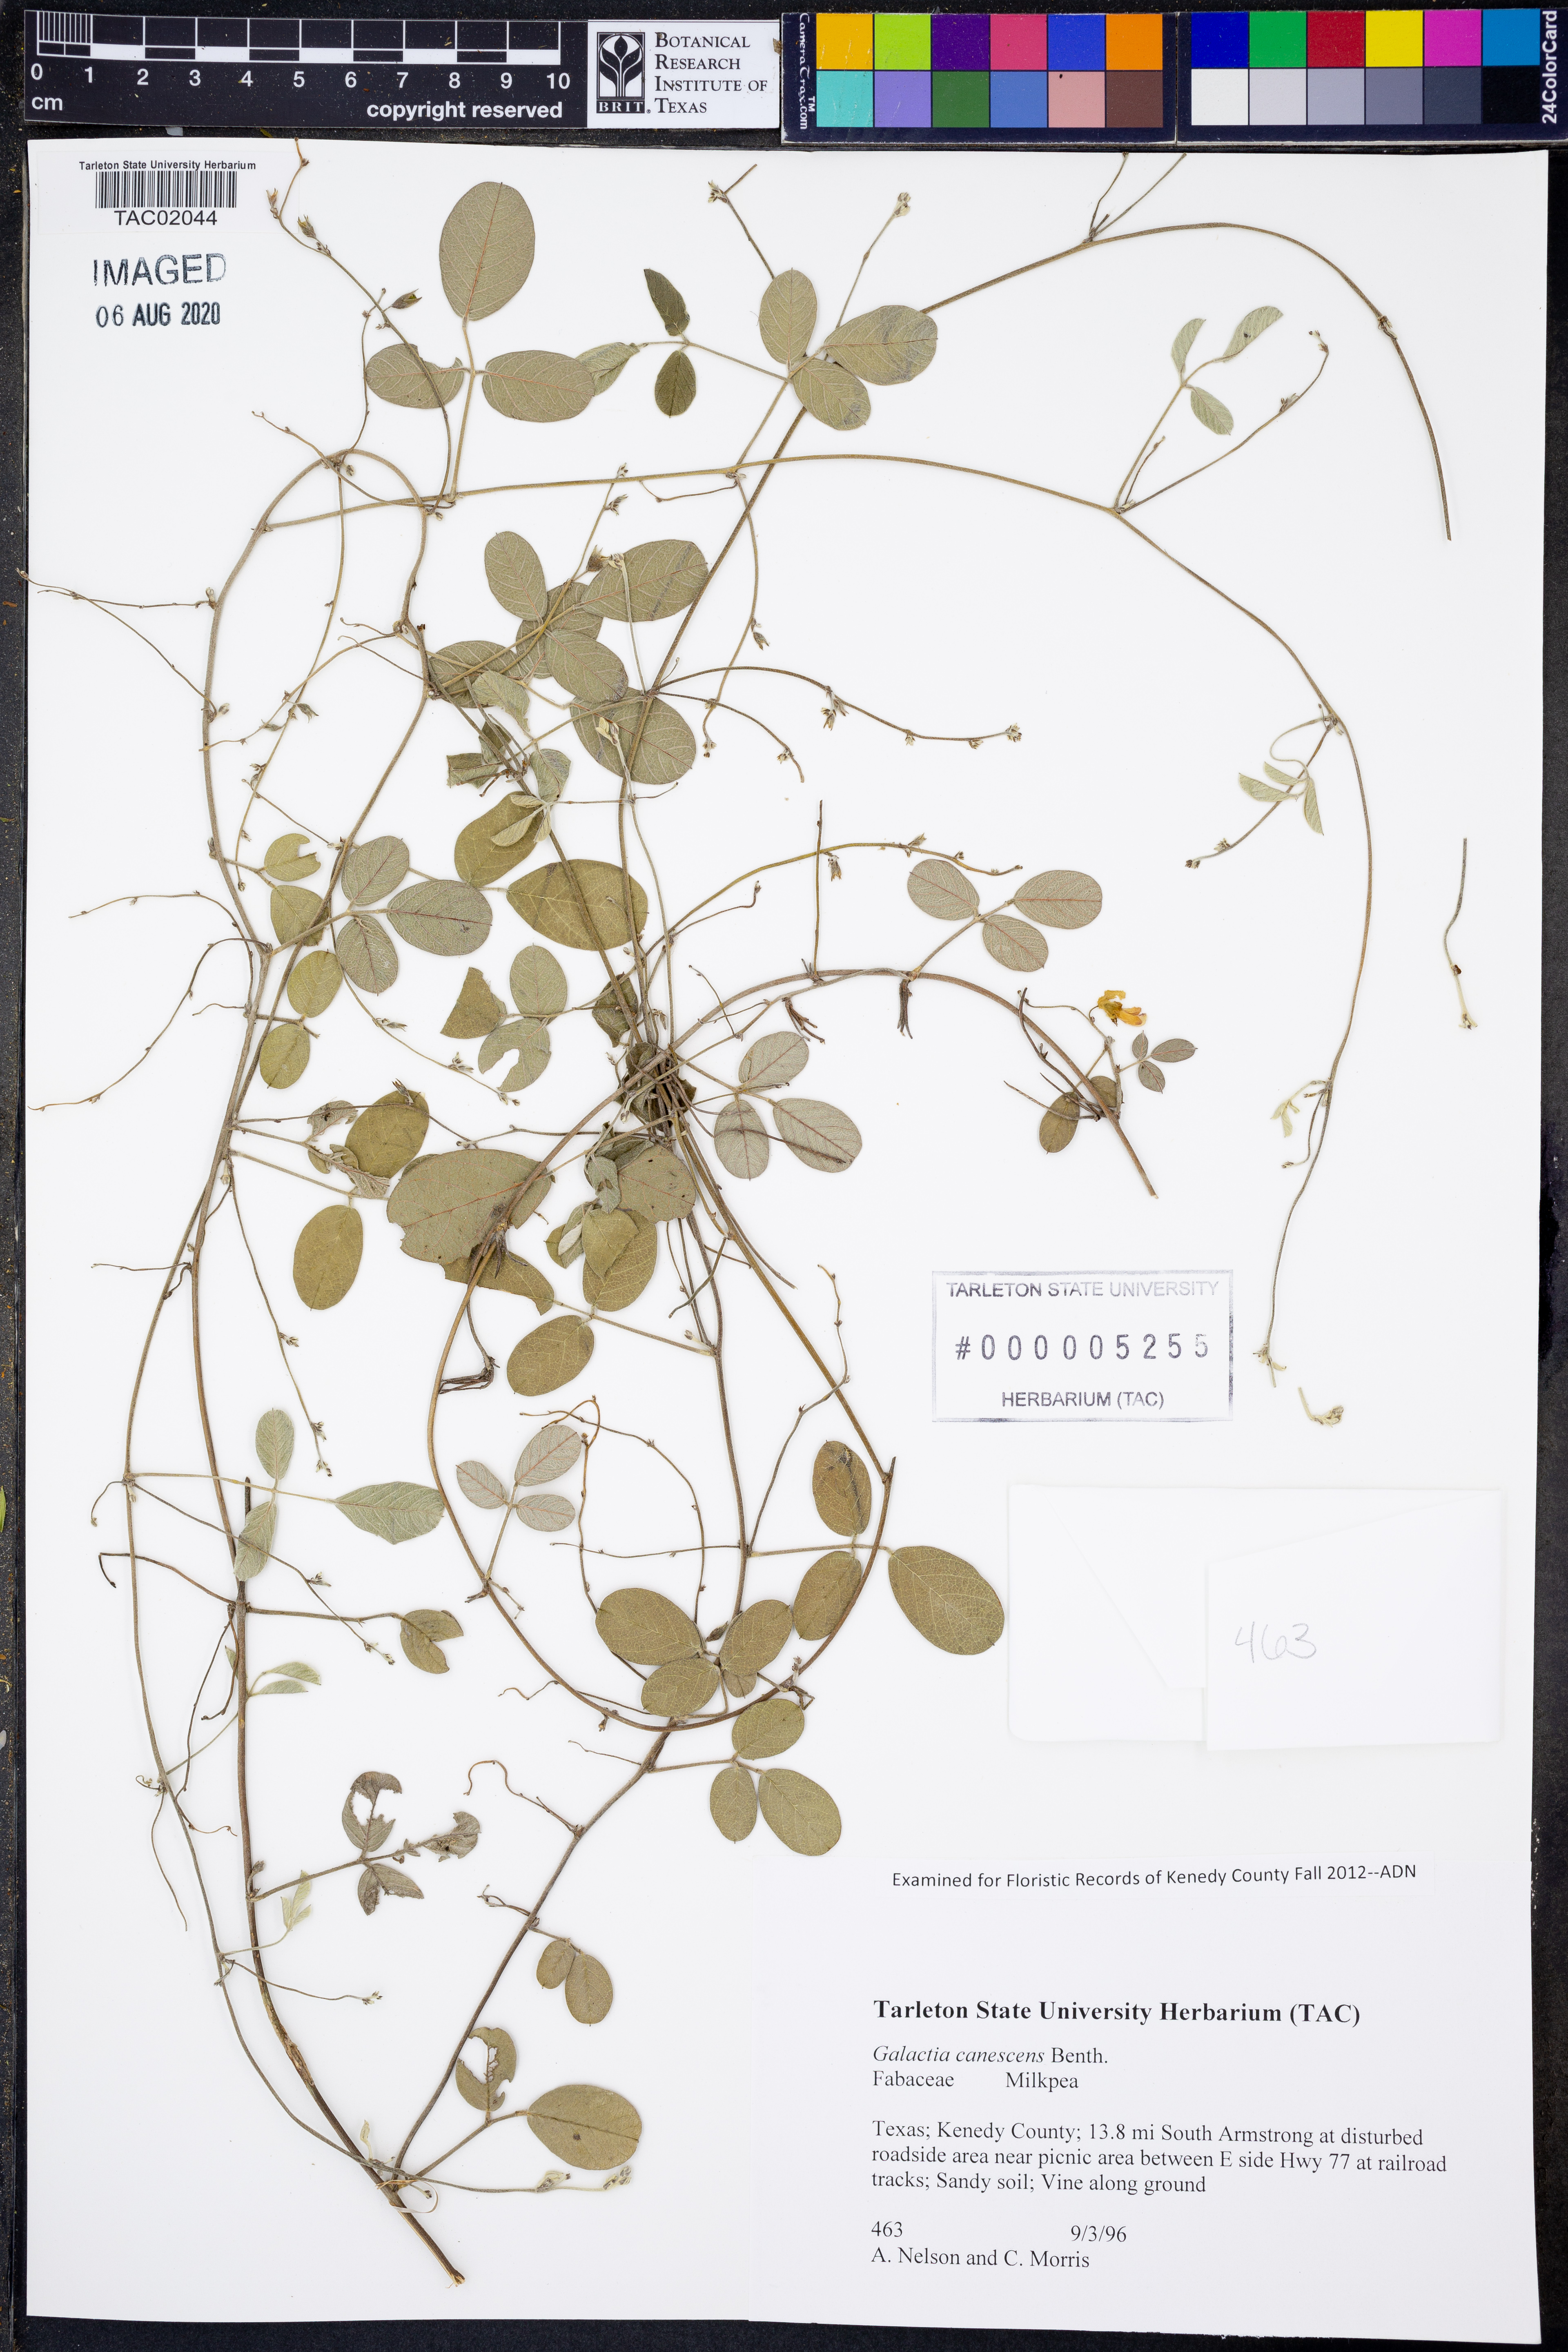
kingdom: Plantae
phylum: Tracheophyta
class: Magnoliopsida
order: Fabales
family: Fabaceae
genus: Galactia
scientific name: Galactia canescens
